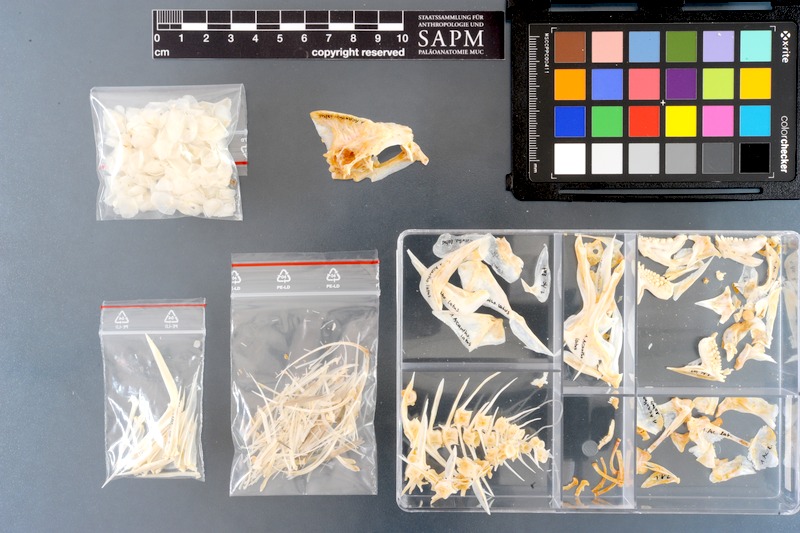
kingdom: Animalia
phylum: Chordata
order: Perciformes
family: Sparidae
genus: Acanthopagrus
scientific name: Acanthopagrus latus
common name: Yellowfin seabream
